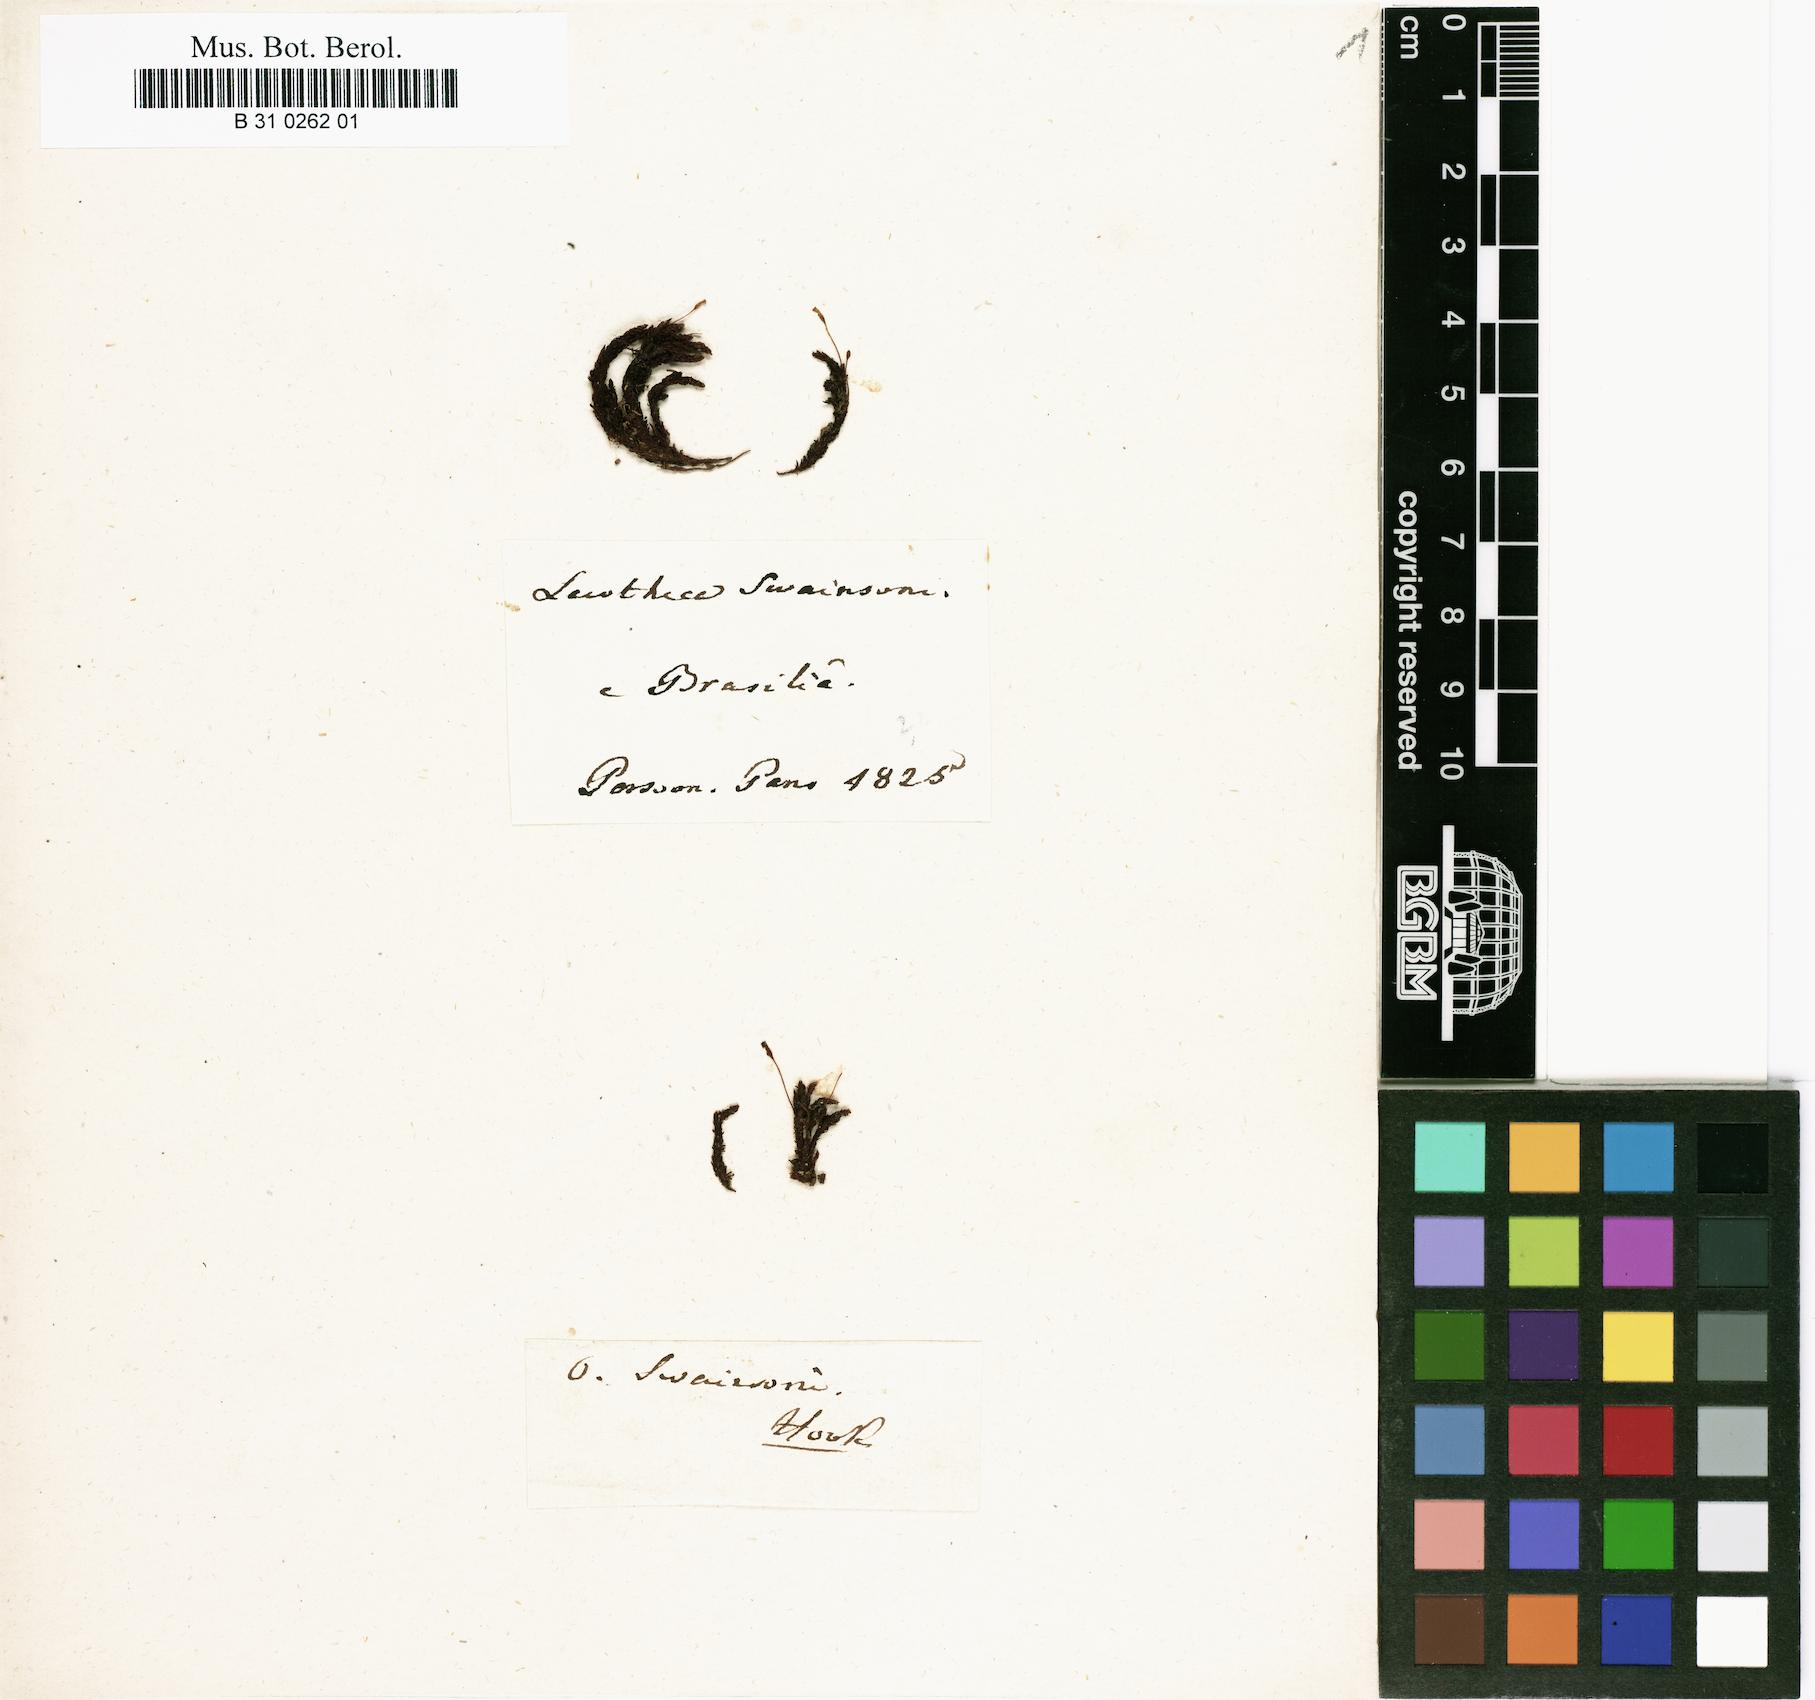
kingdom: Plantae
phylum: Bryophyta
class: Bryopsida
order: Orthotrichales
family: Orthotrichaceae
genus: Macromitrium
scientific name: Macromitrium swainsonii
